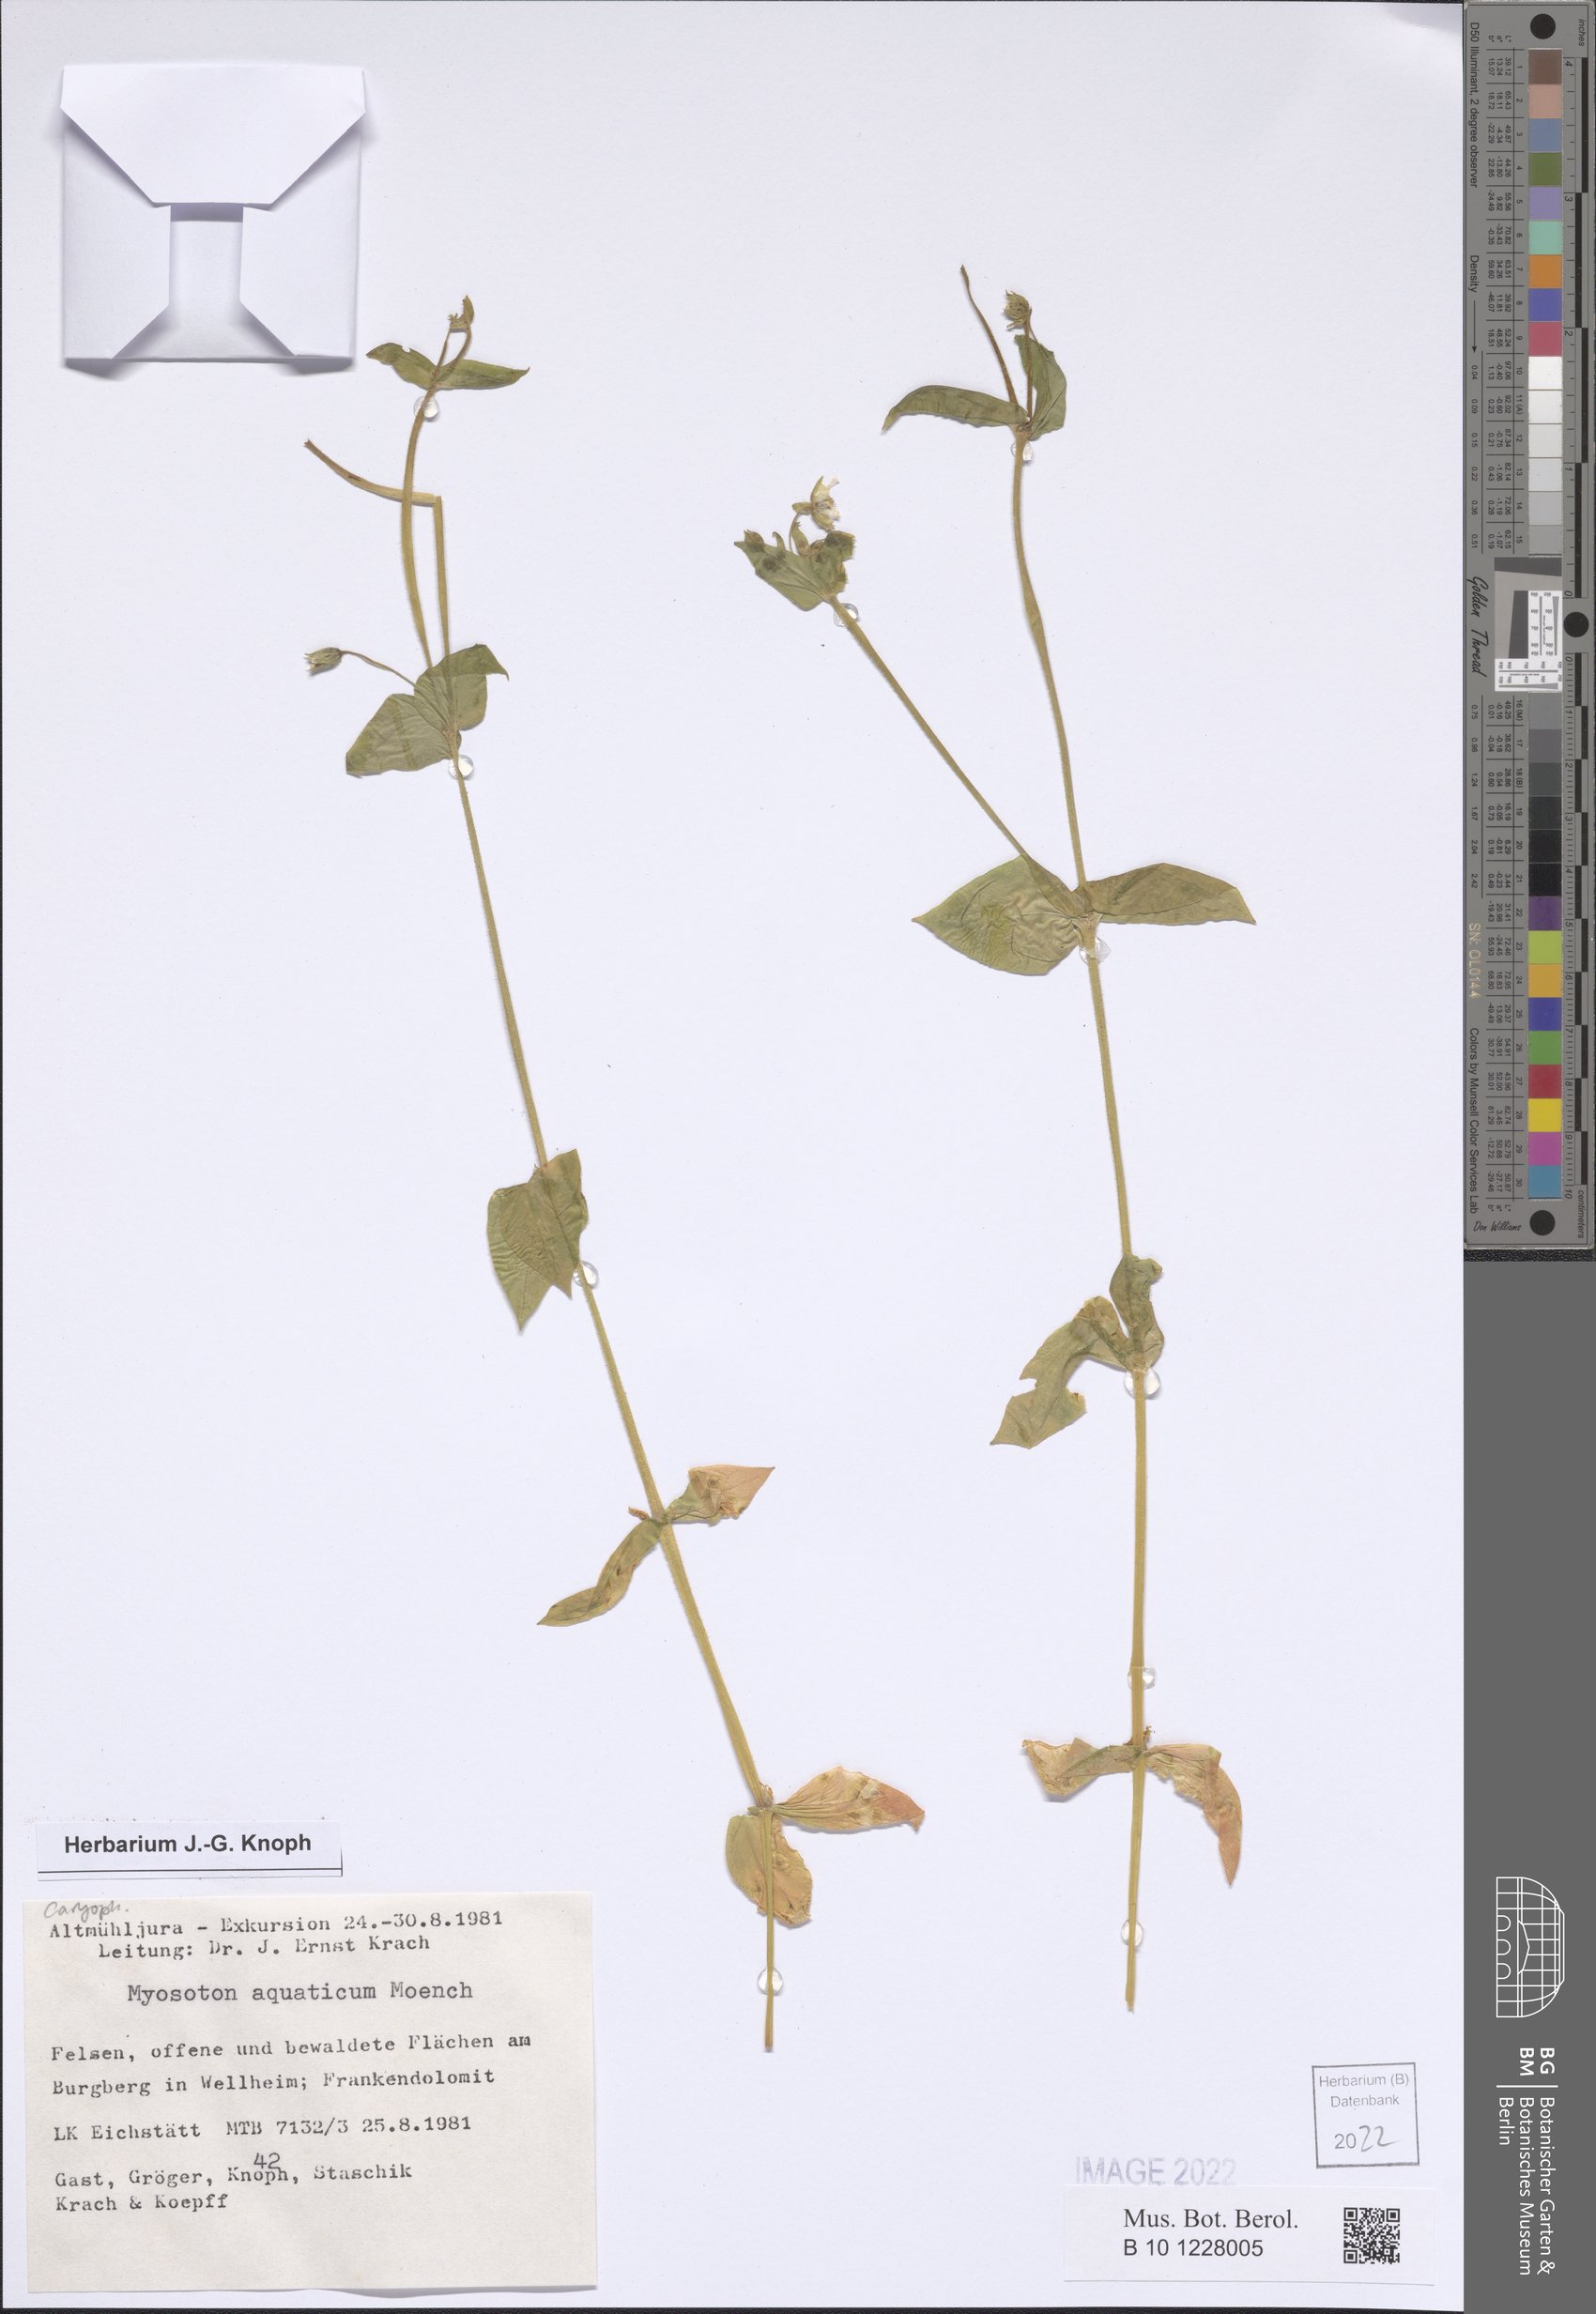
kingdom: Plantae
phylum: Tracheophyta
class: Magnoliopsida
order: Caryophyllales
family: Caryophyllaceae
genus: Stellaria
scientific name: Stellaria aquatica
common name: Water chickweed
